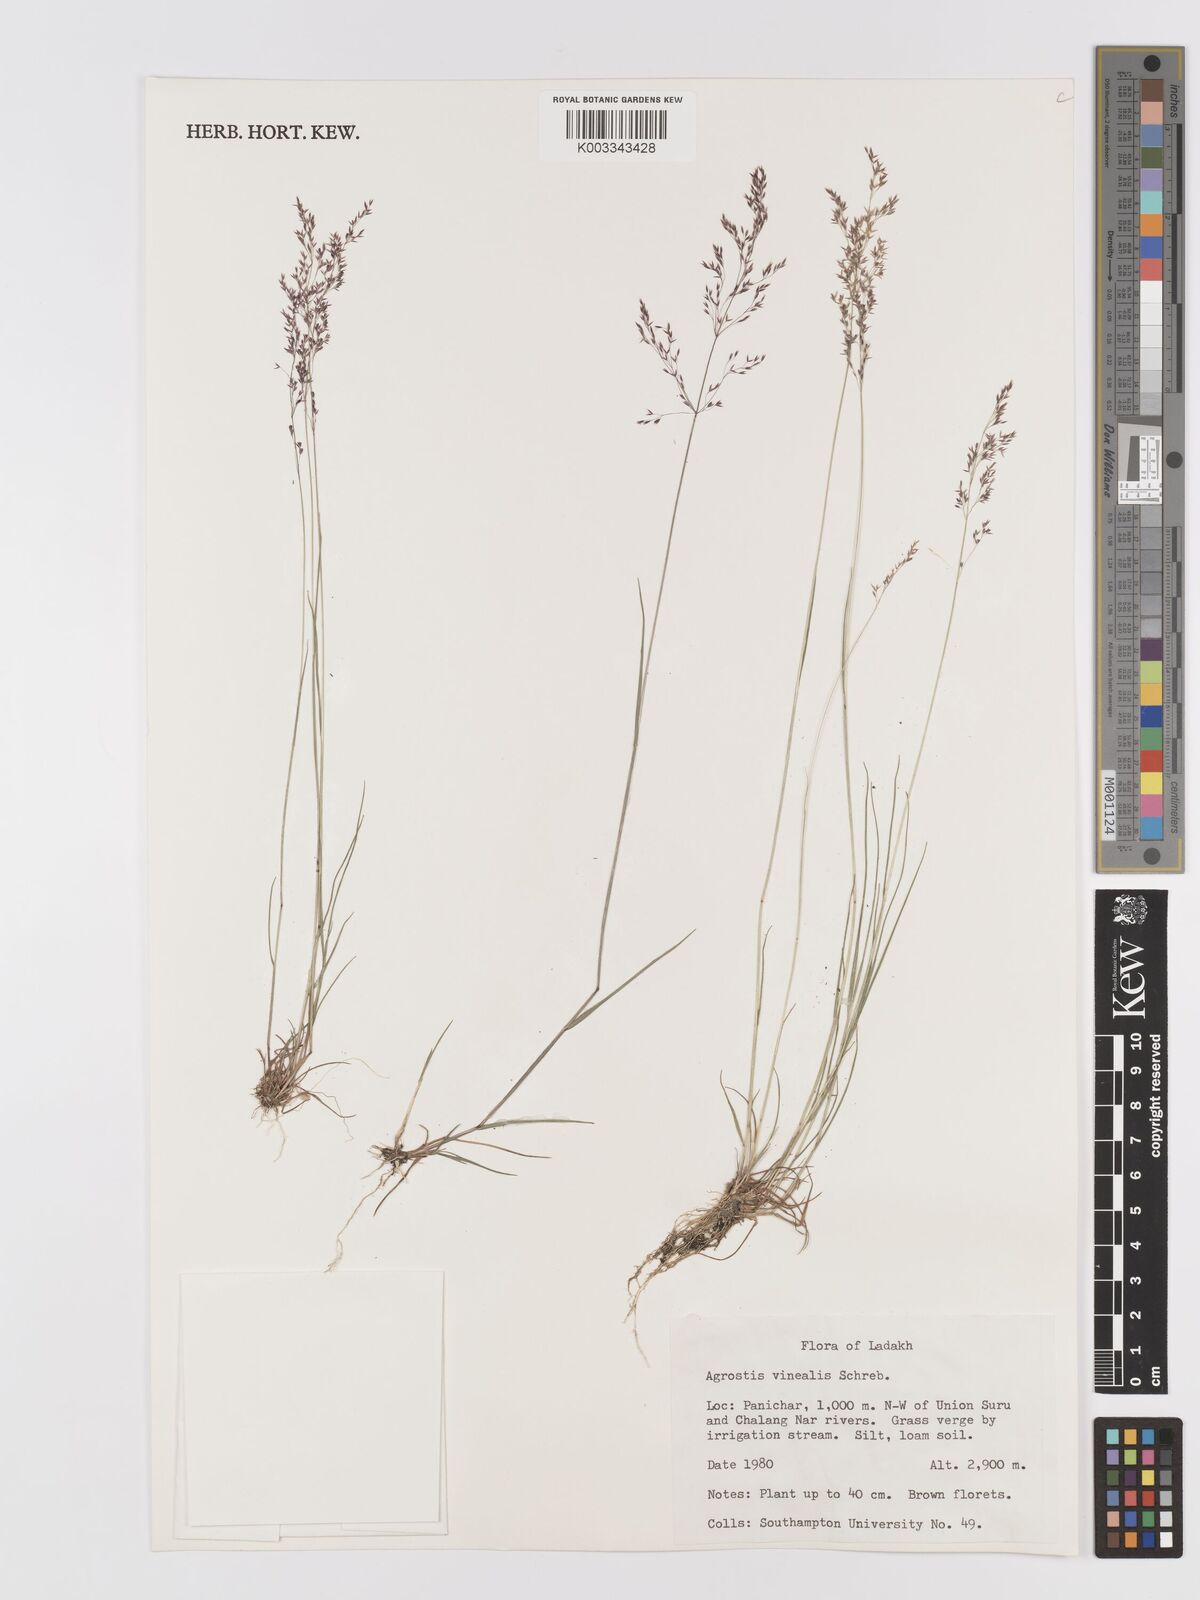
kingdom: Plantae
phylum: Tracheophyta
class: Liliopsida
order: Poales
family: Poaceae
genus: Agrostis
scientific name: Agrostis vinealis
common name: Brown bent
